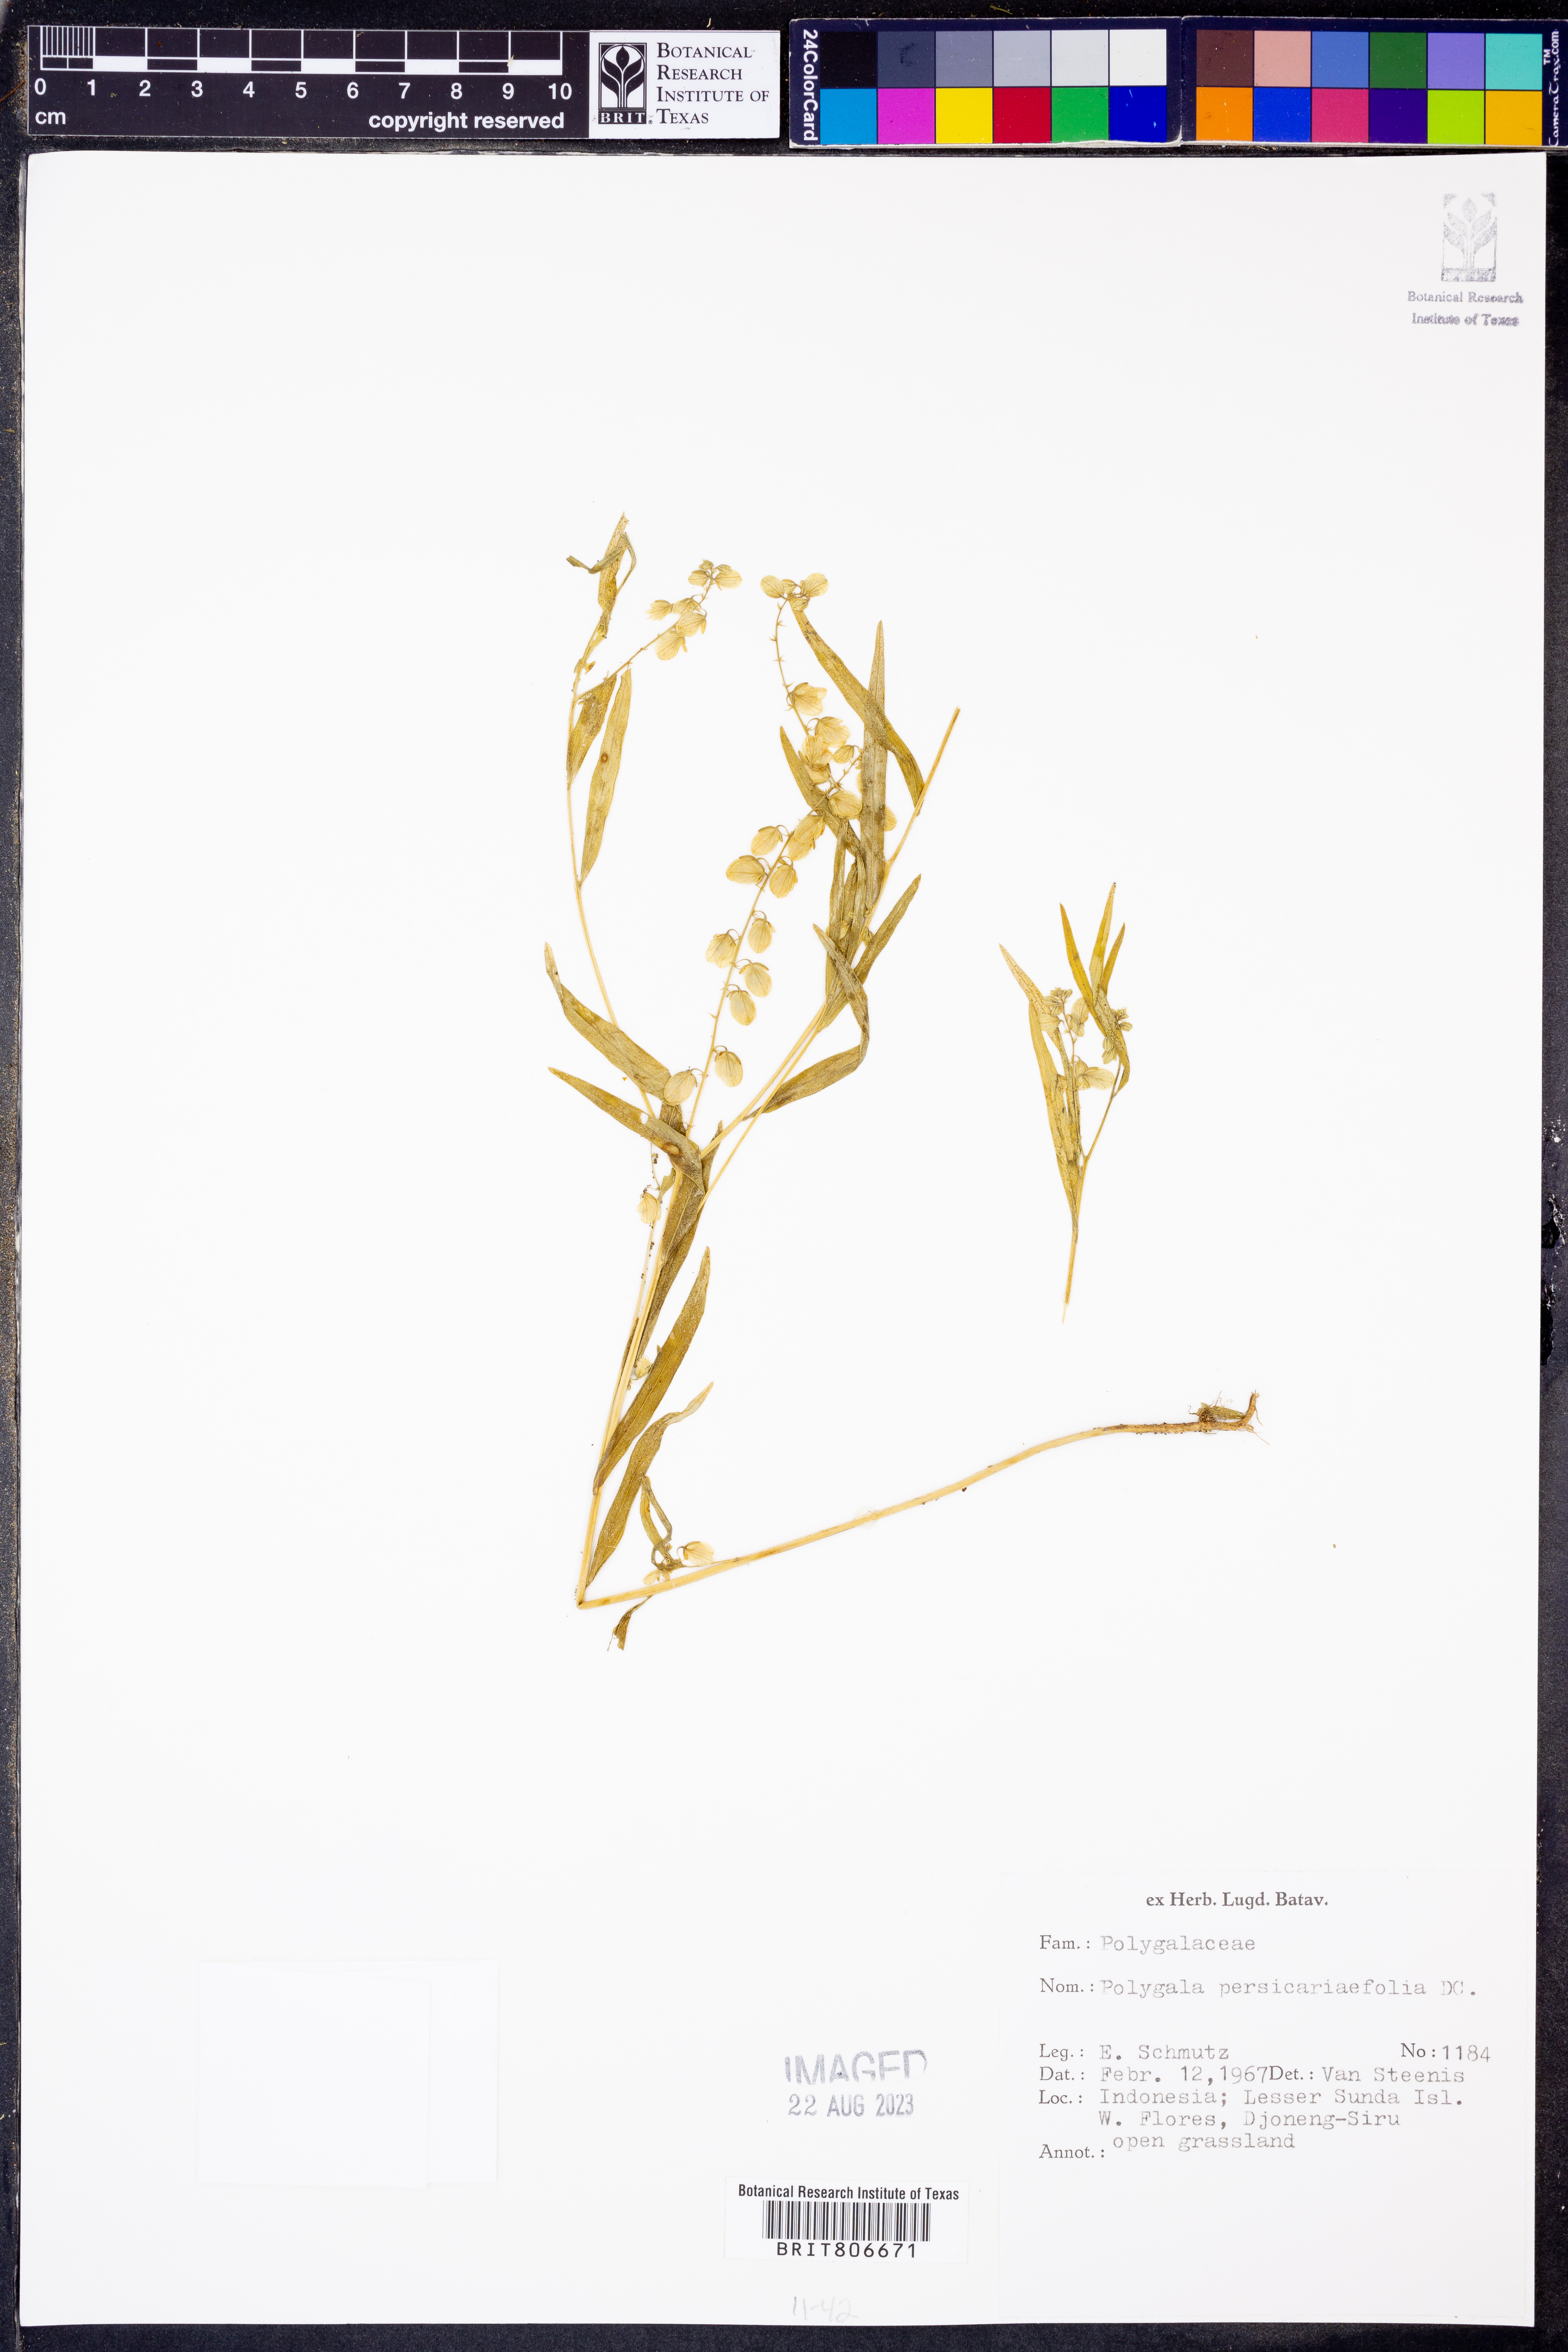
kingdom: Plantae
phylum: Tracheophyta
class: Magnoliopsida
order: Fabales
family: Polygalaceae
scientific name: Polygalaceae
